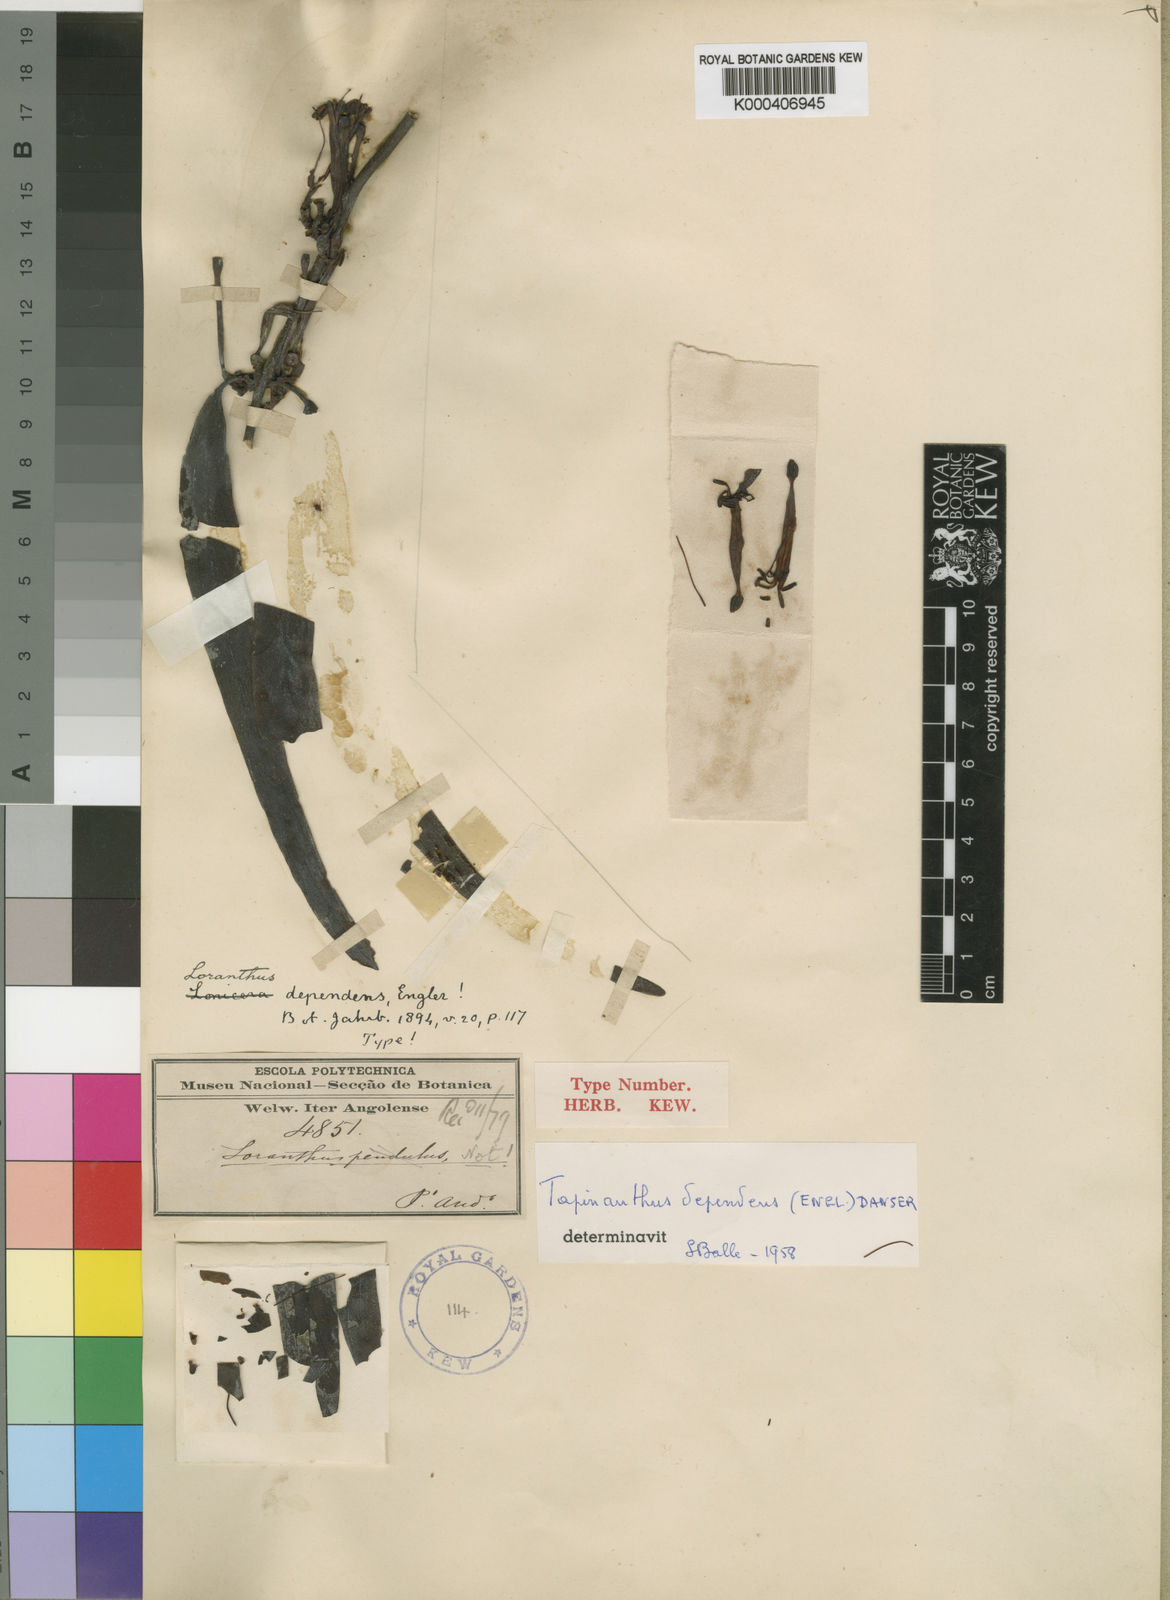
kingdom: Plantae
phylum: Tracheophyta
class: Magnoliopsida
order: Santalales
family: Loranthaceae
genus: Tapinanthus
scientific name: Tapinanthus dependens
